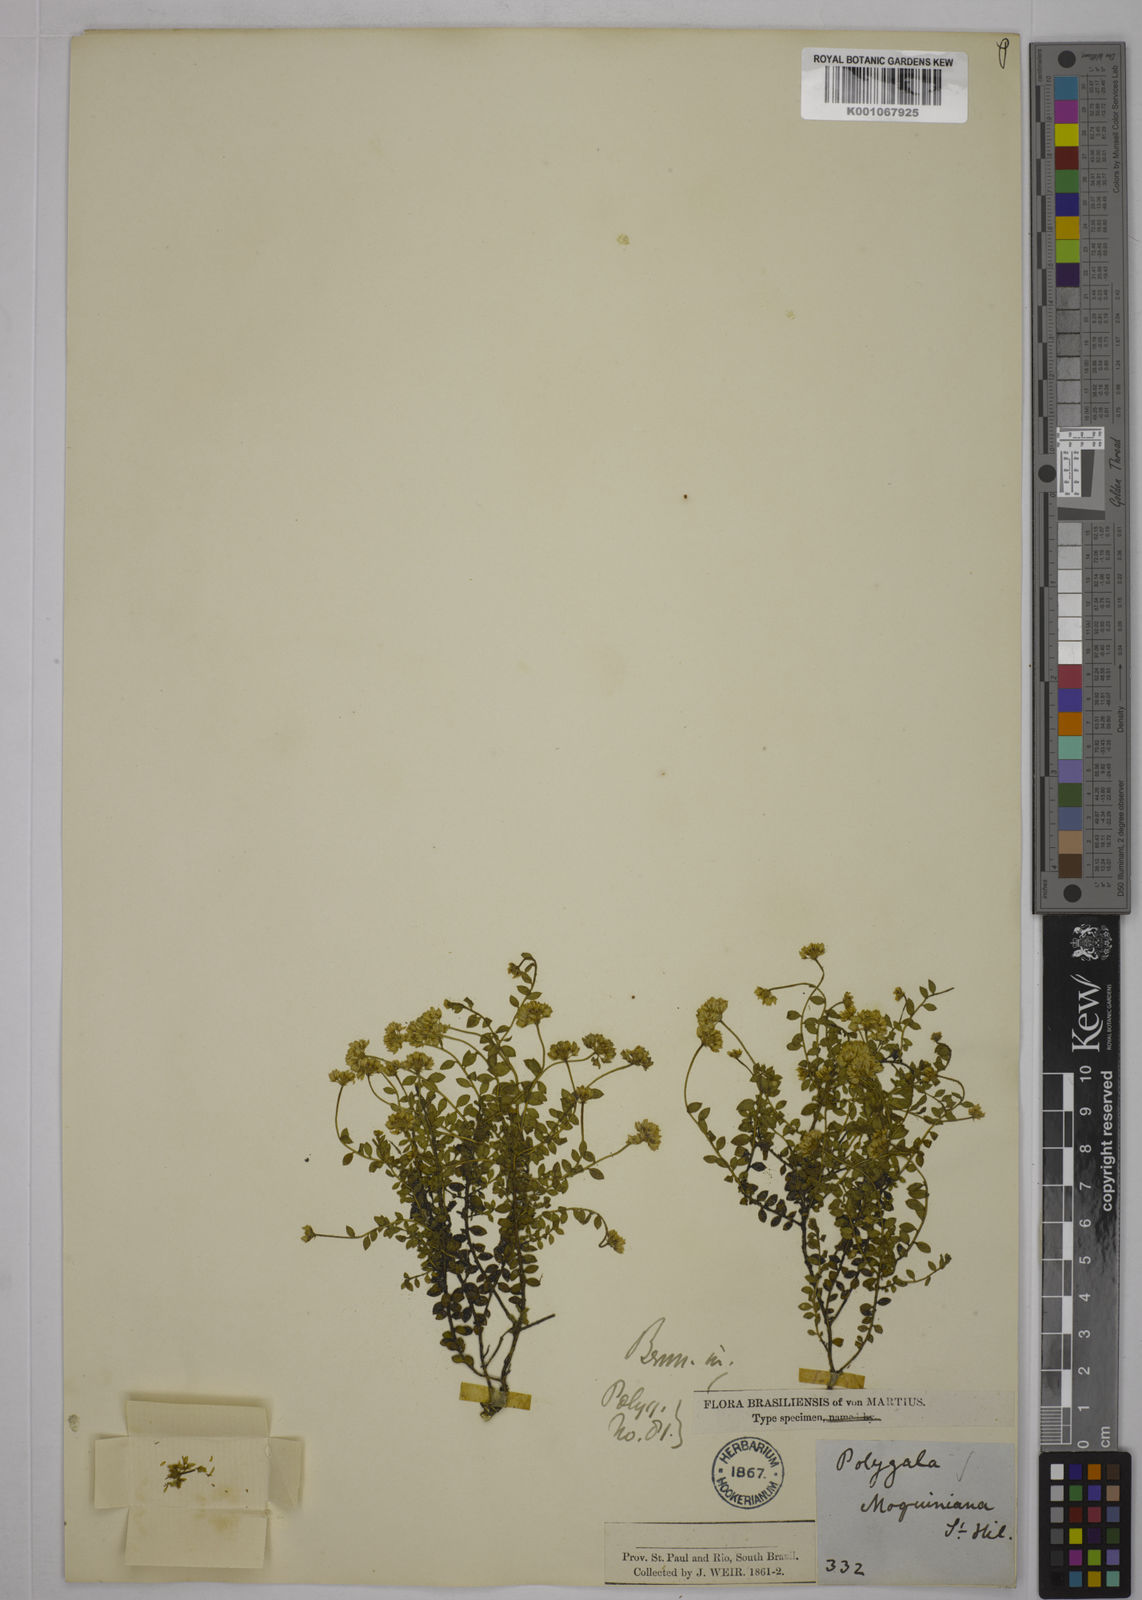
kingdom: Plantae
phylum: Tracheophyta
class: Magnoliopsida
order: Fabales
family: Polygalaceae
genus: Polygala
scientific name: Polygala moquiniana
